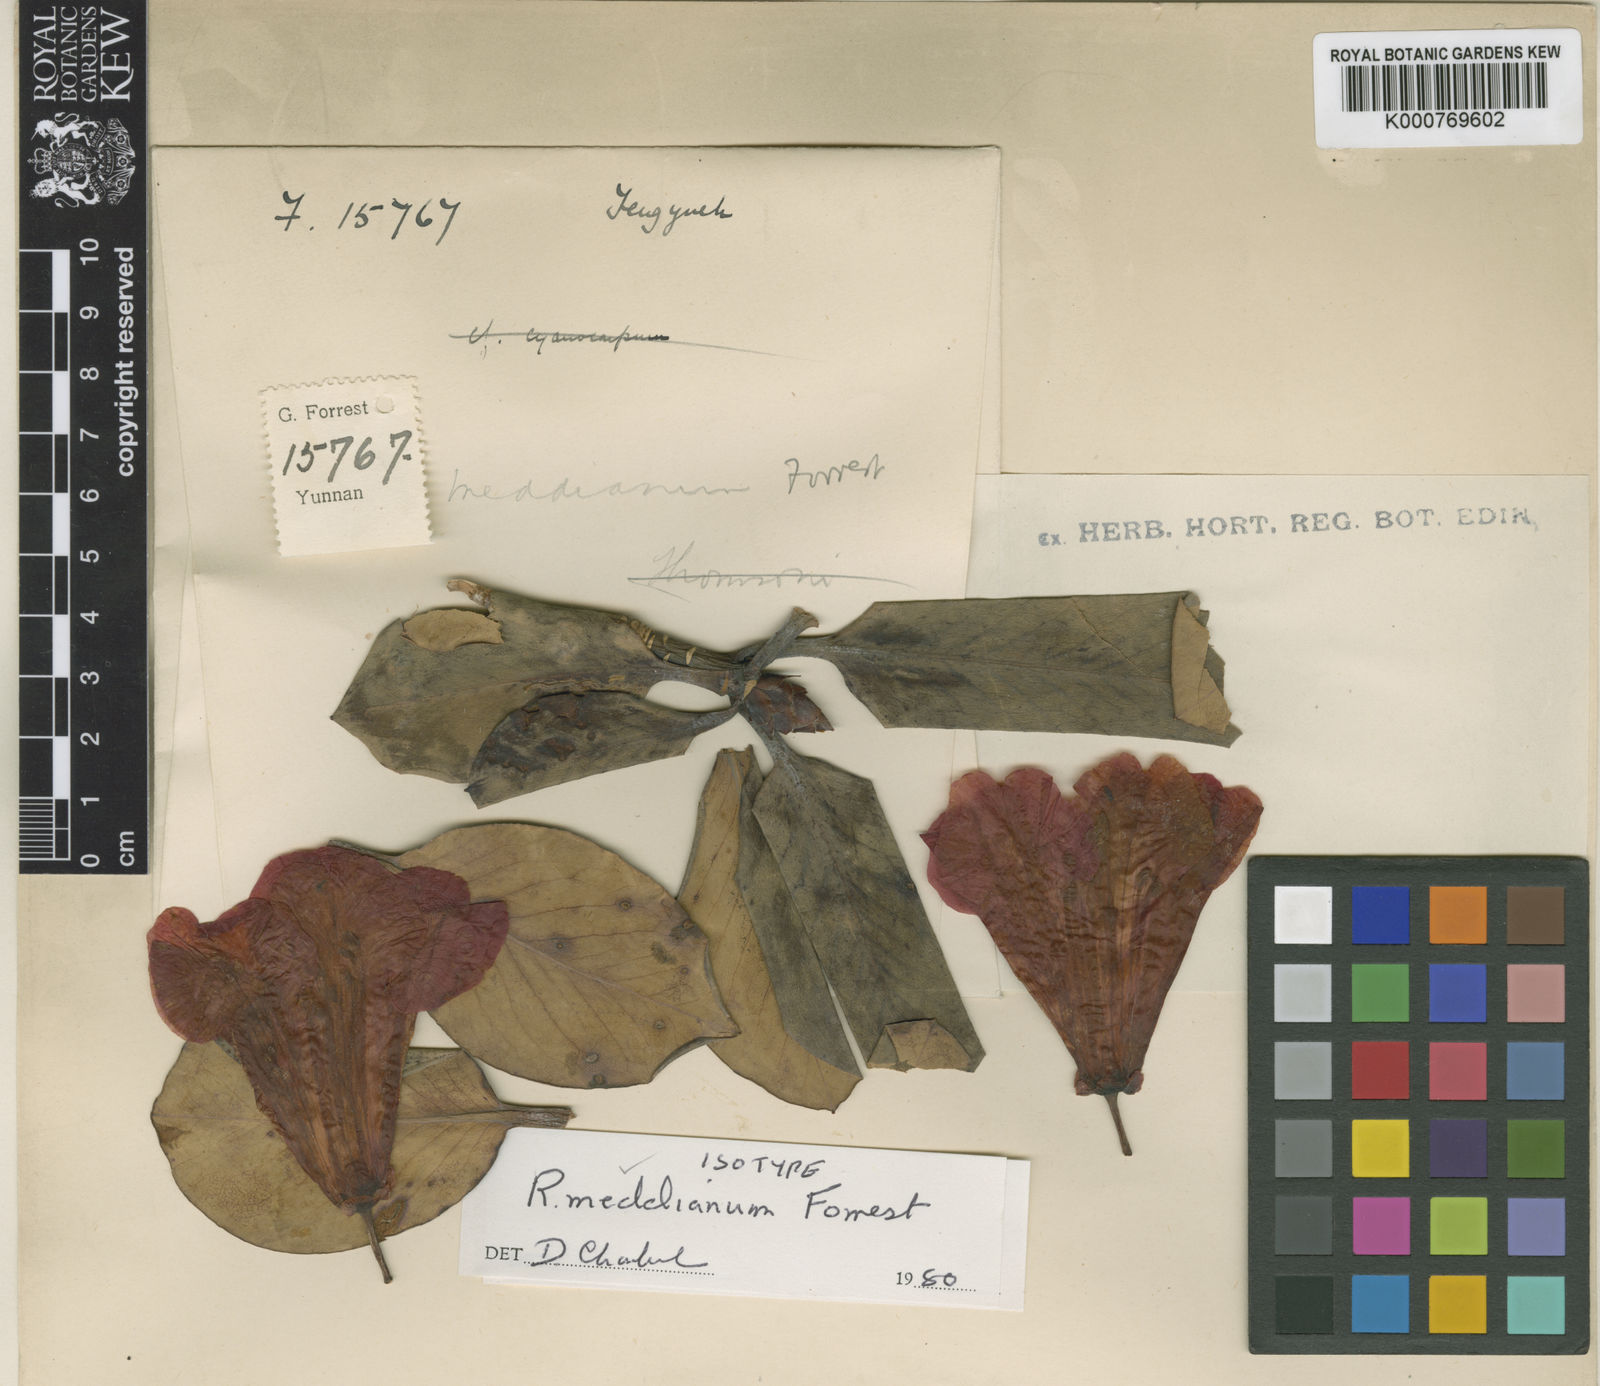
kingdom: Plantae
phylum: Tracheophyta
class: Magnoliopsida
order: Ericales
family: Ericaceae
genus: Rhododendron
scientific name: Rhododendron meddianum
